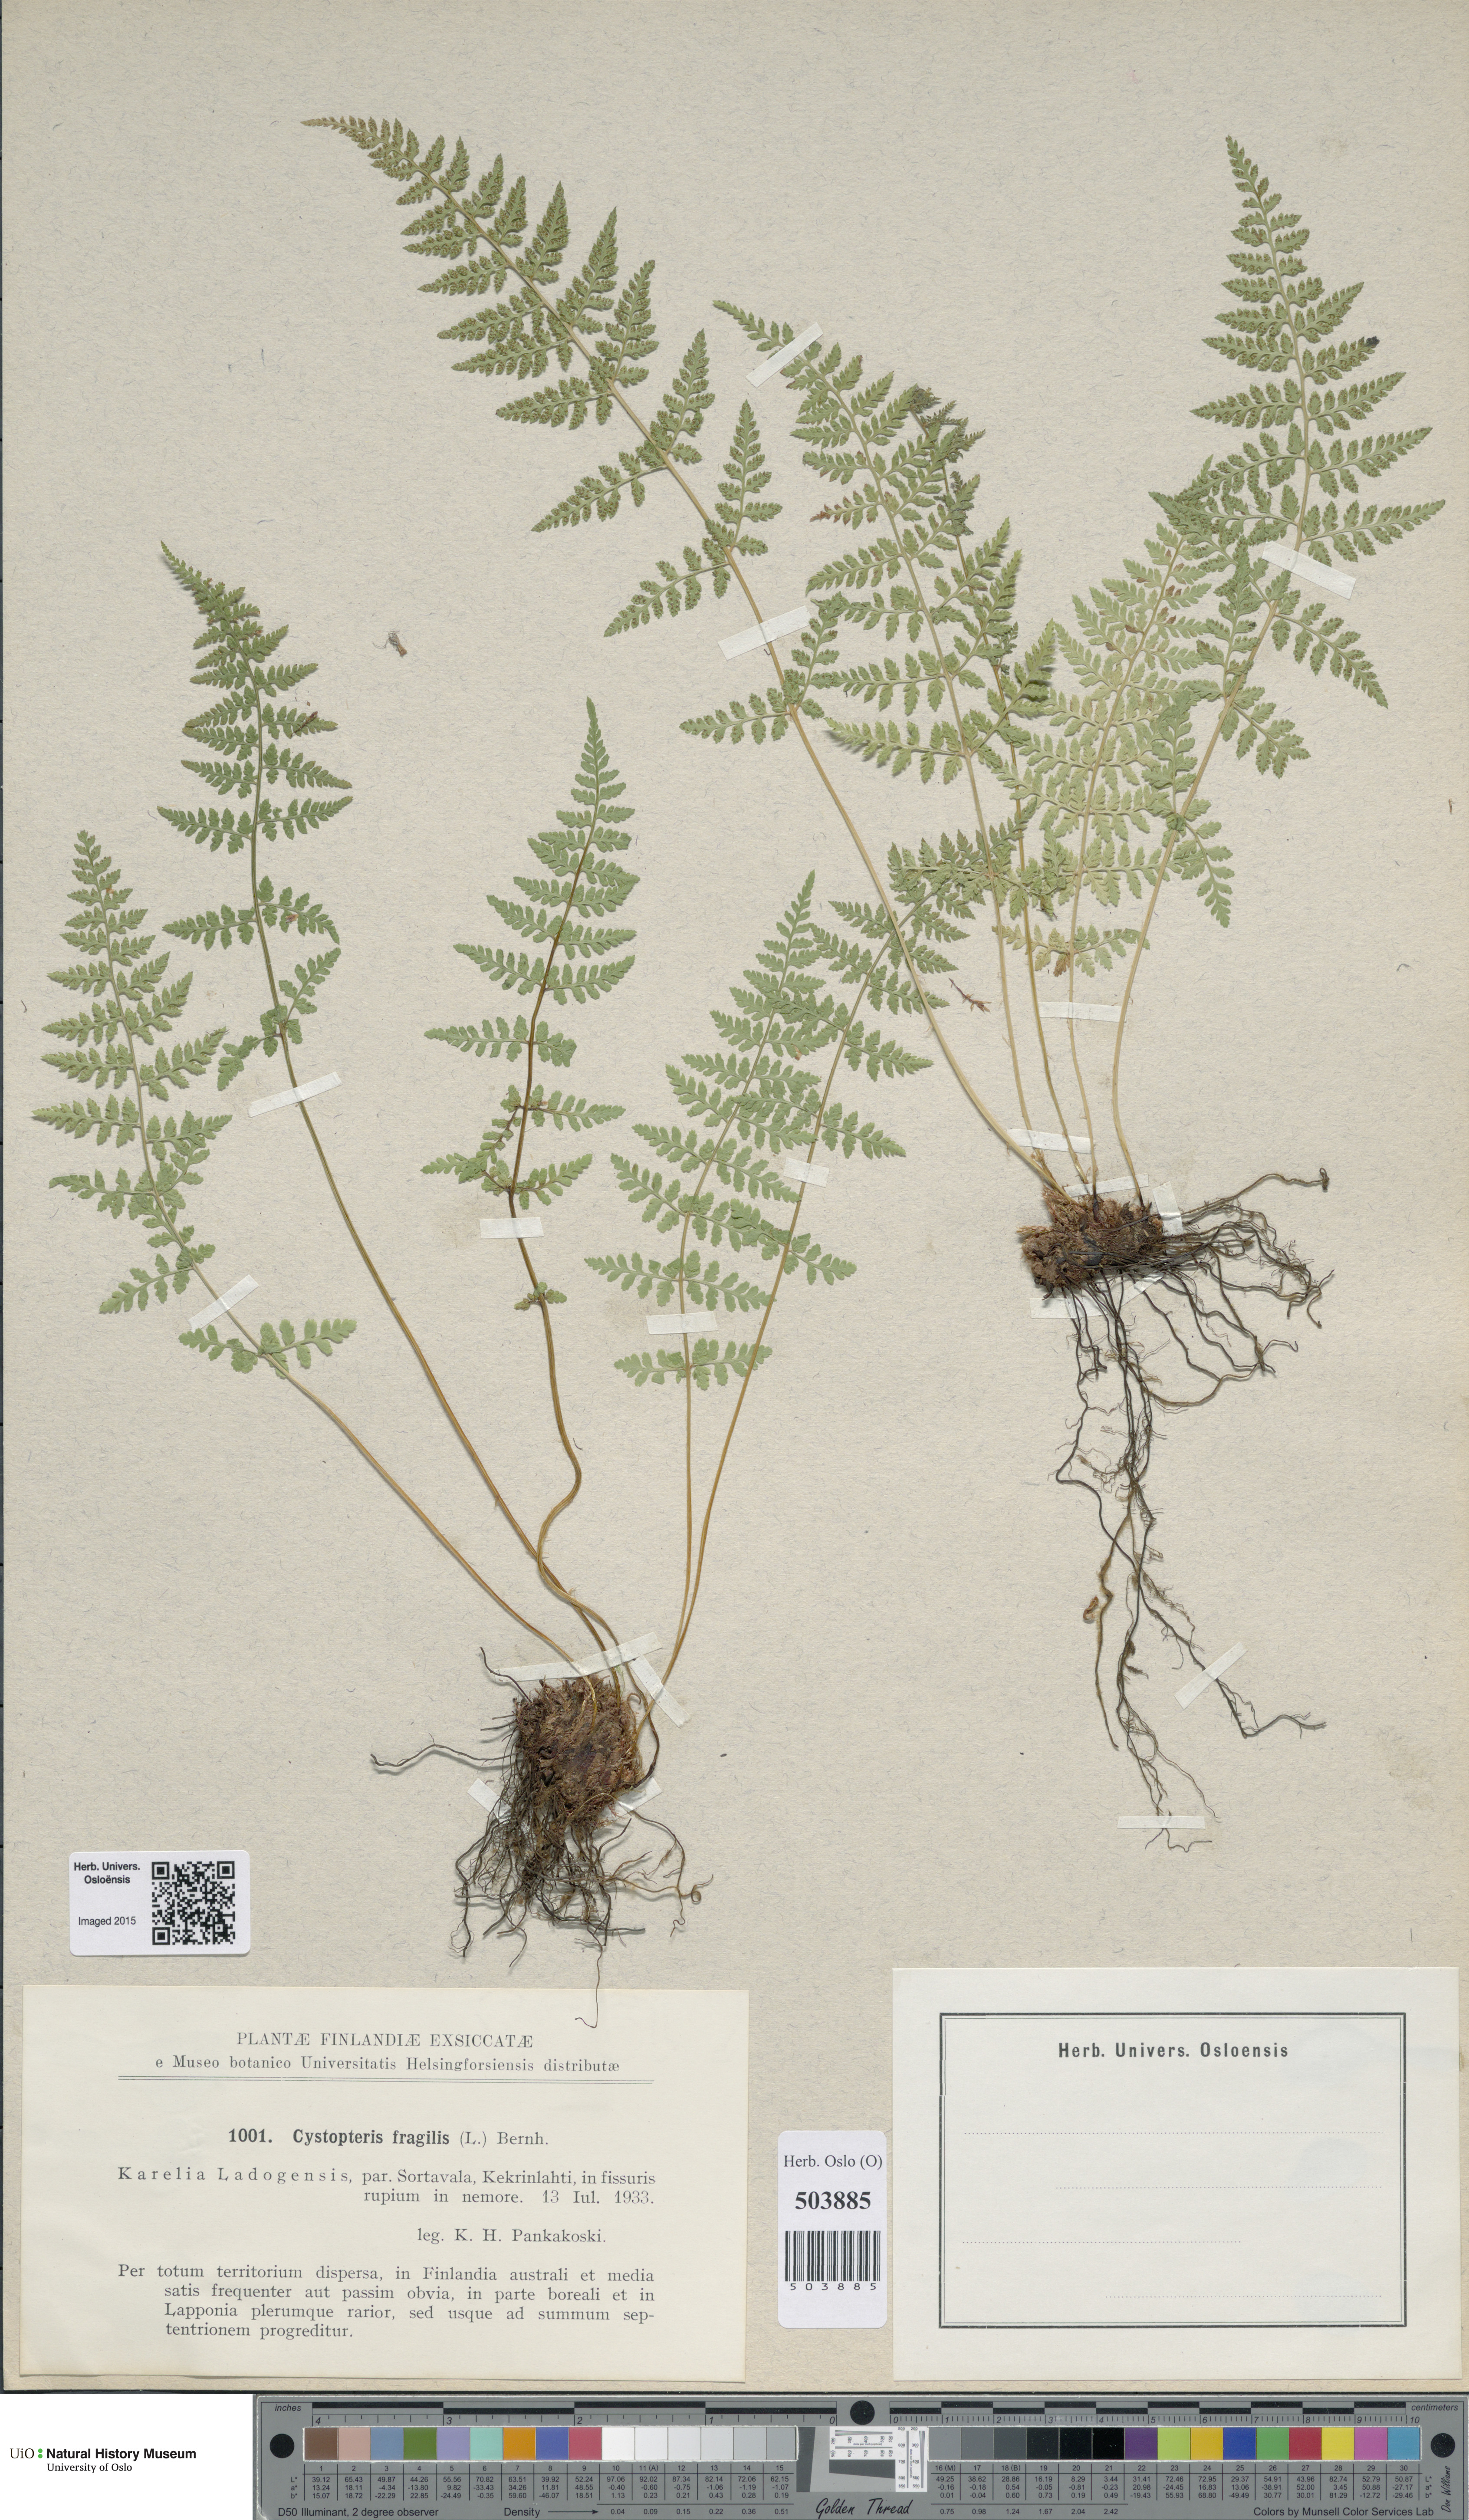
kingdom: Plantae
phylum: Tracheophyta
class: Polypodiopsida
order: Polypodiales
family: Cystopteridaceae
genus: Cystopteris
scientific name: Cystopteris fragilis
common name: Brittle bladder fern
